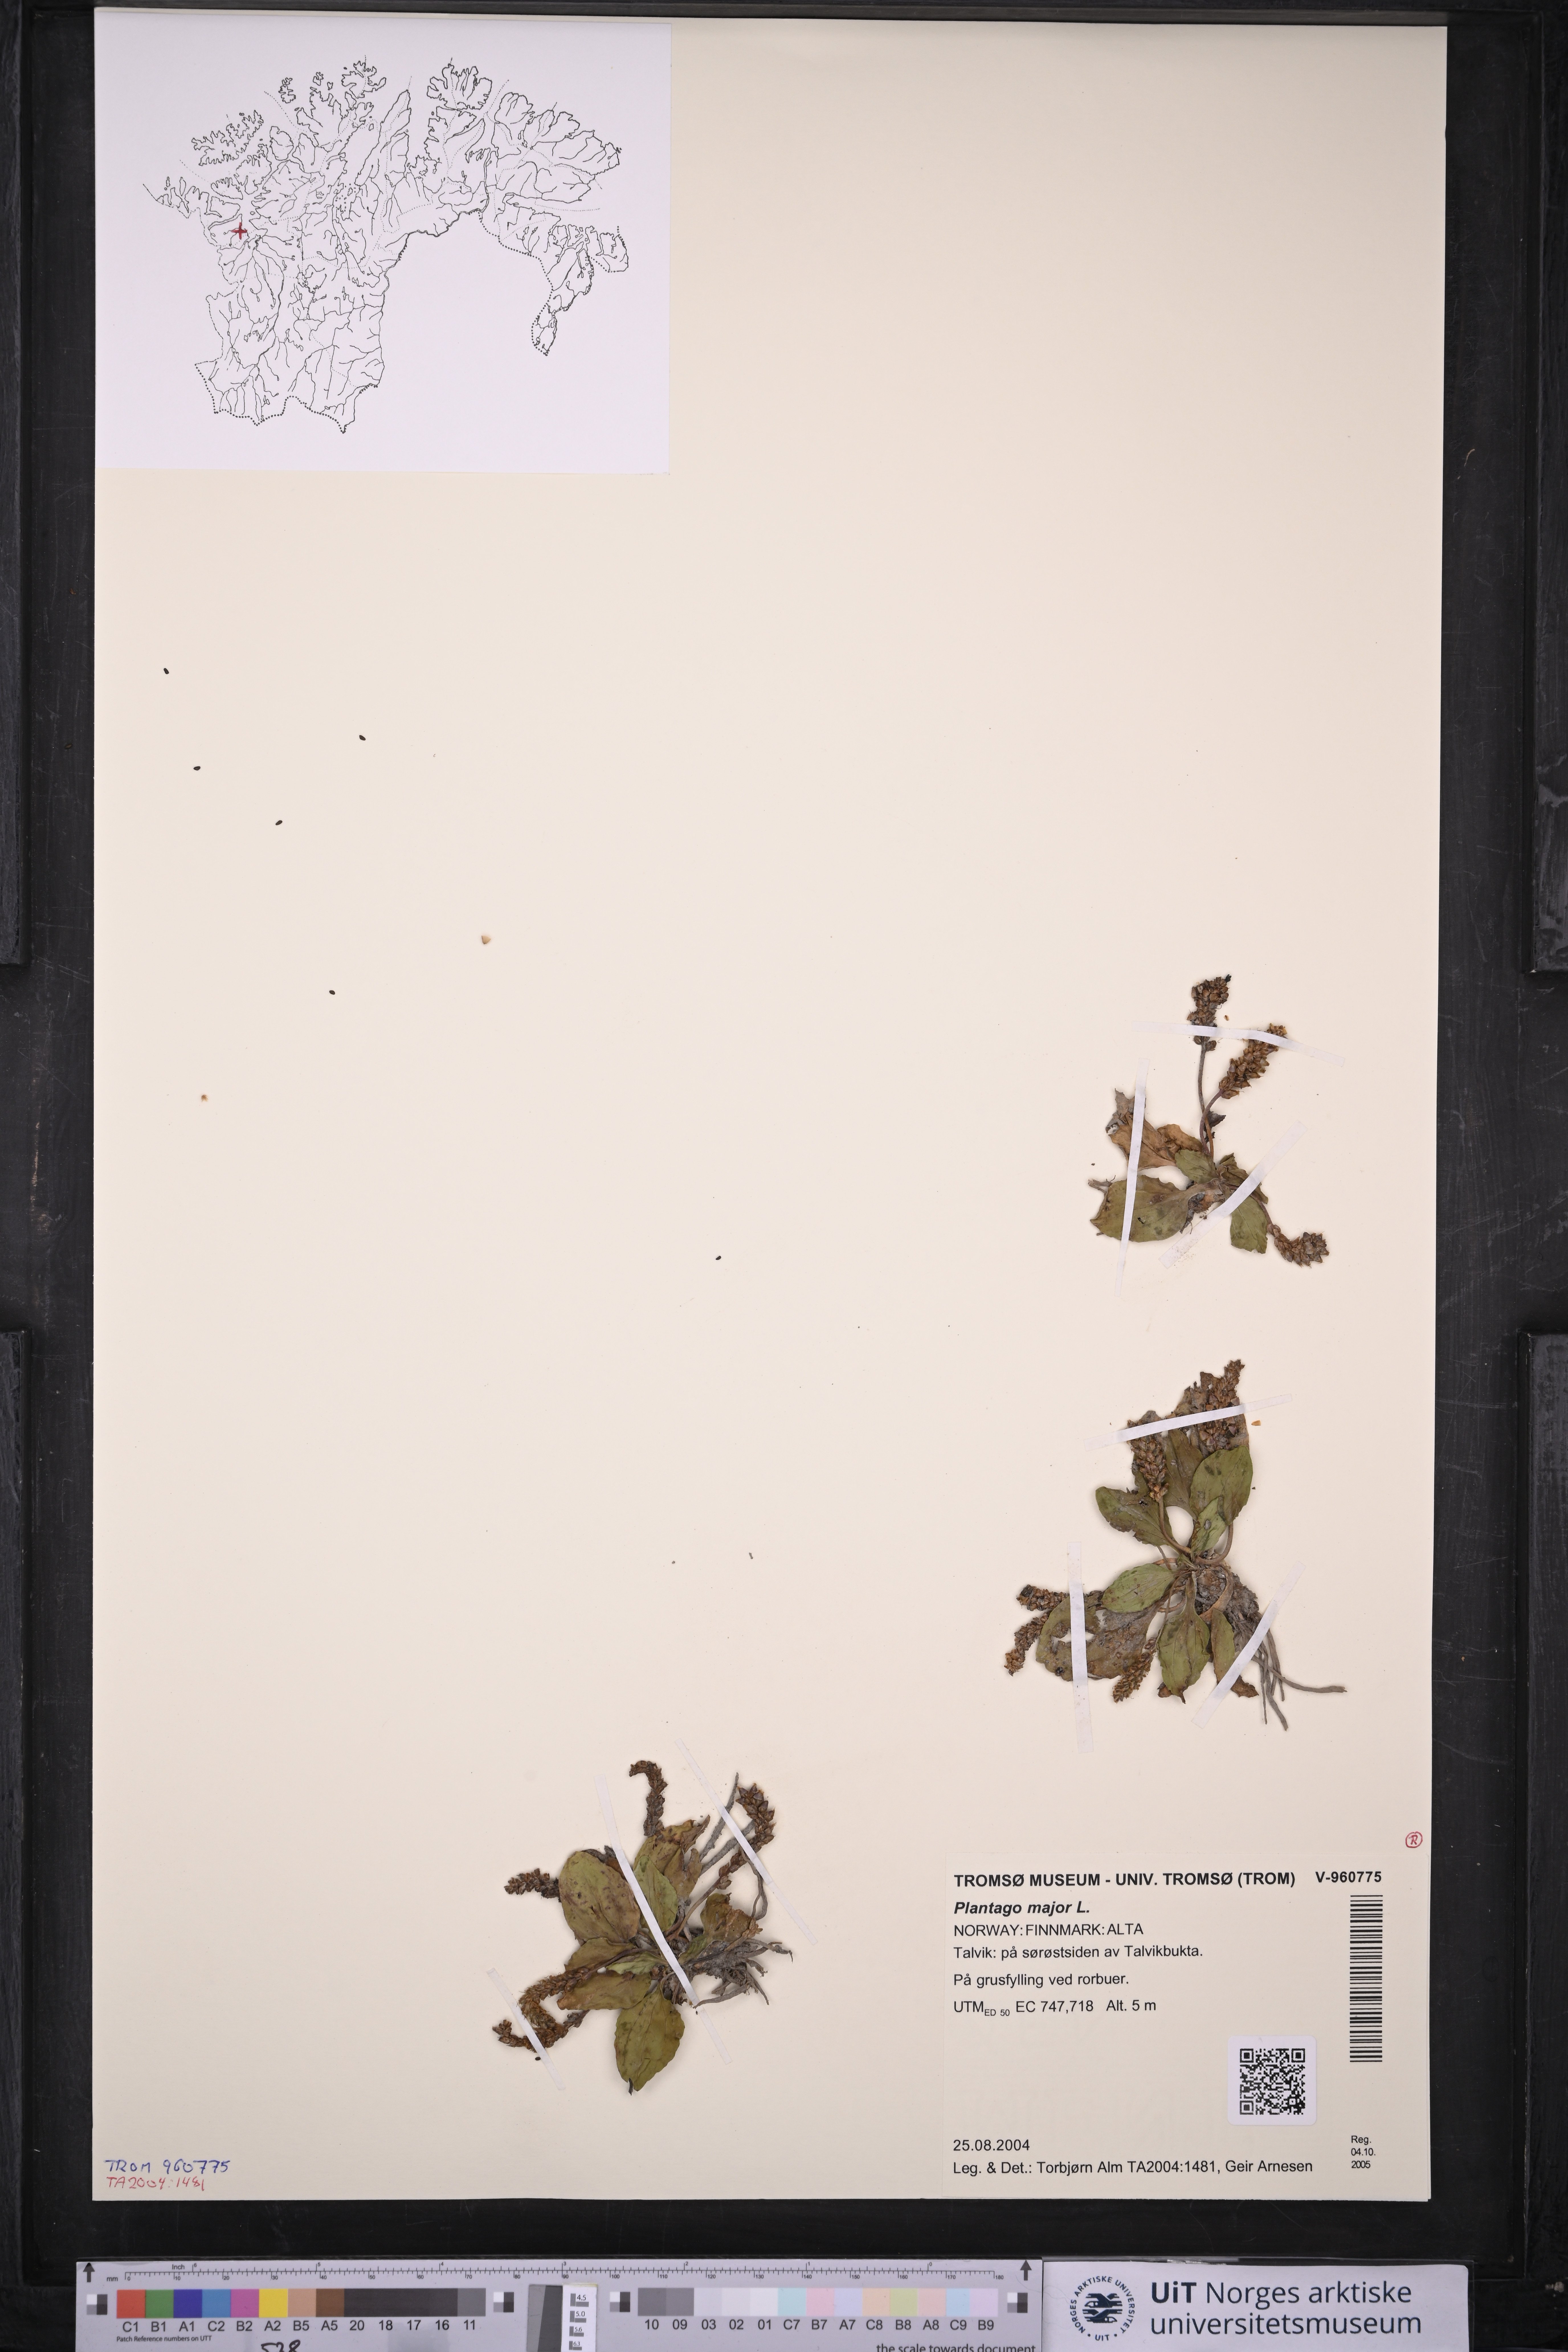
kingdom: Plantae
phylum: Tracheophyta
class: Magnoliopsida
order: Lamiales
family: Plantaginaceae
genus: Plantago
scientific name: Plantago major
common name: Common plantain
